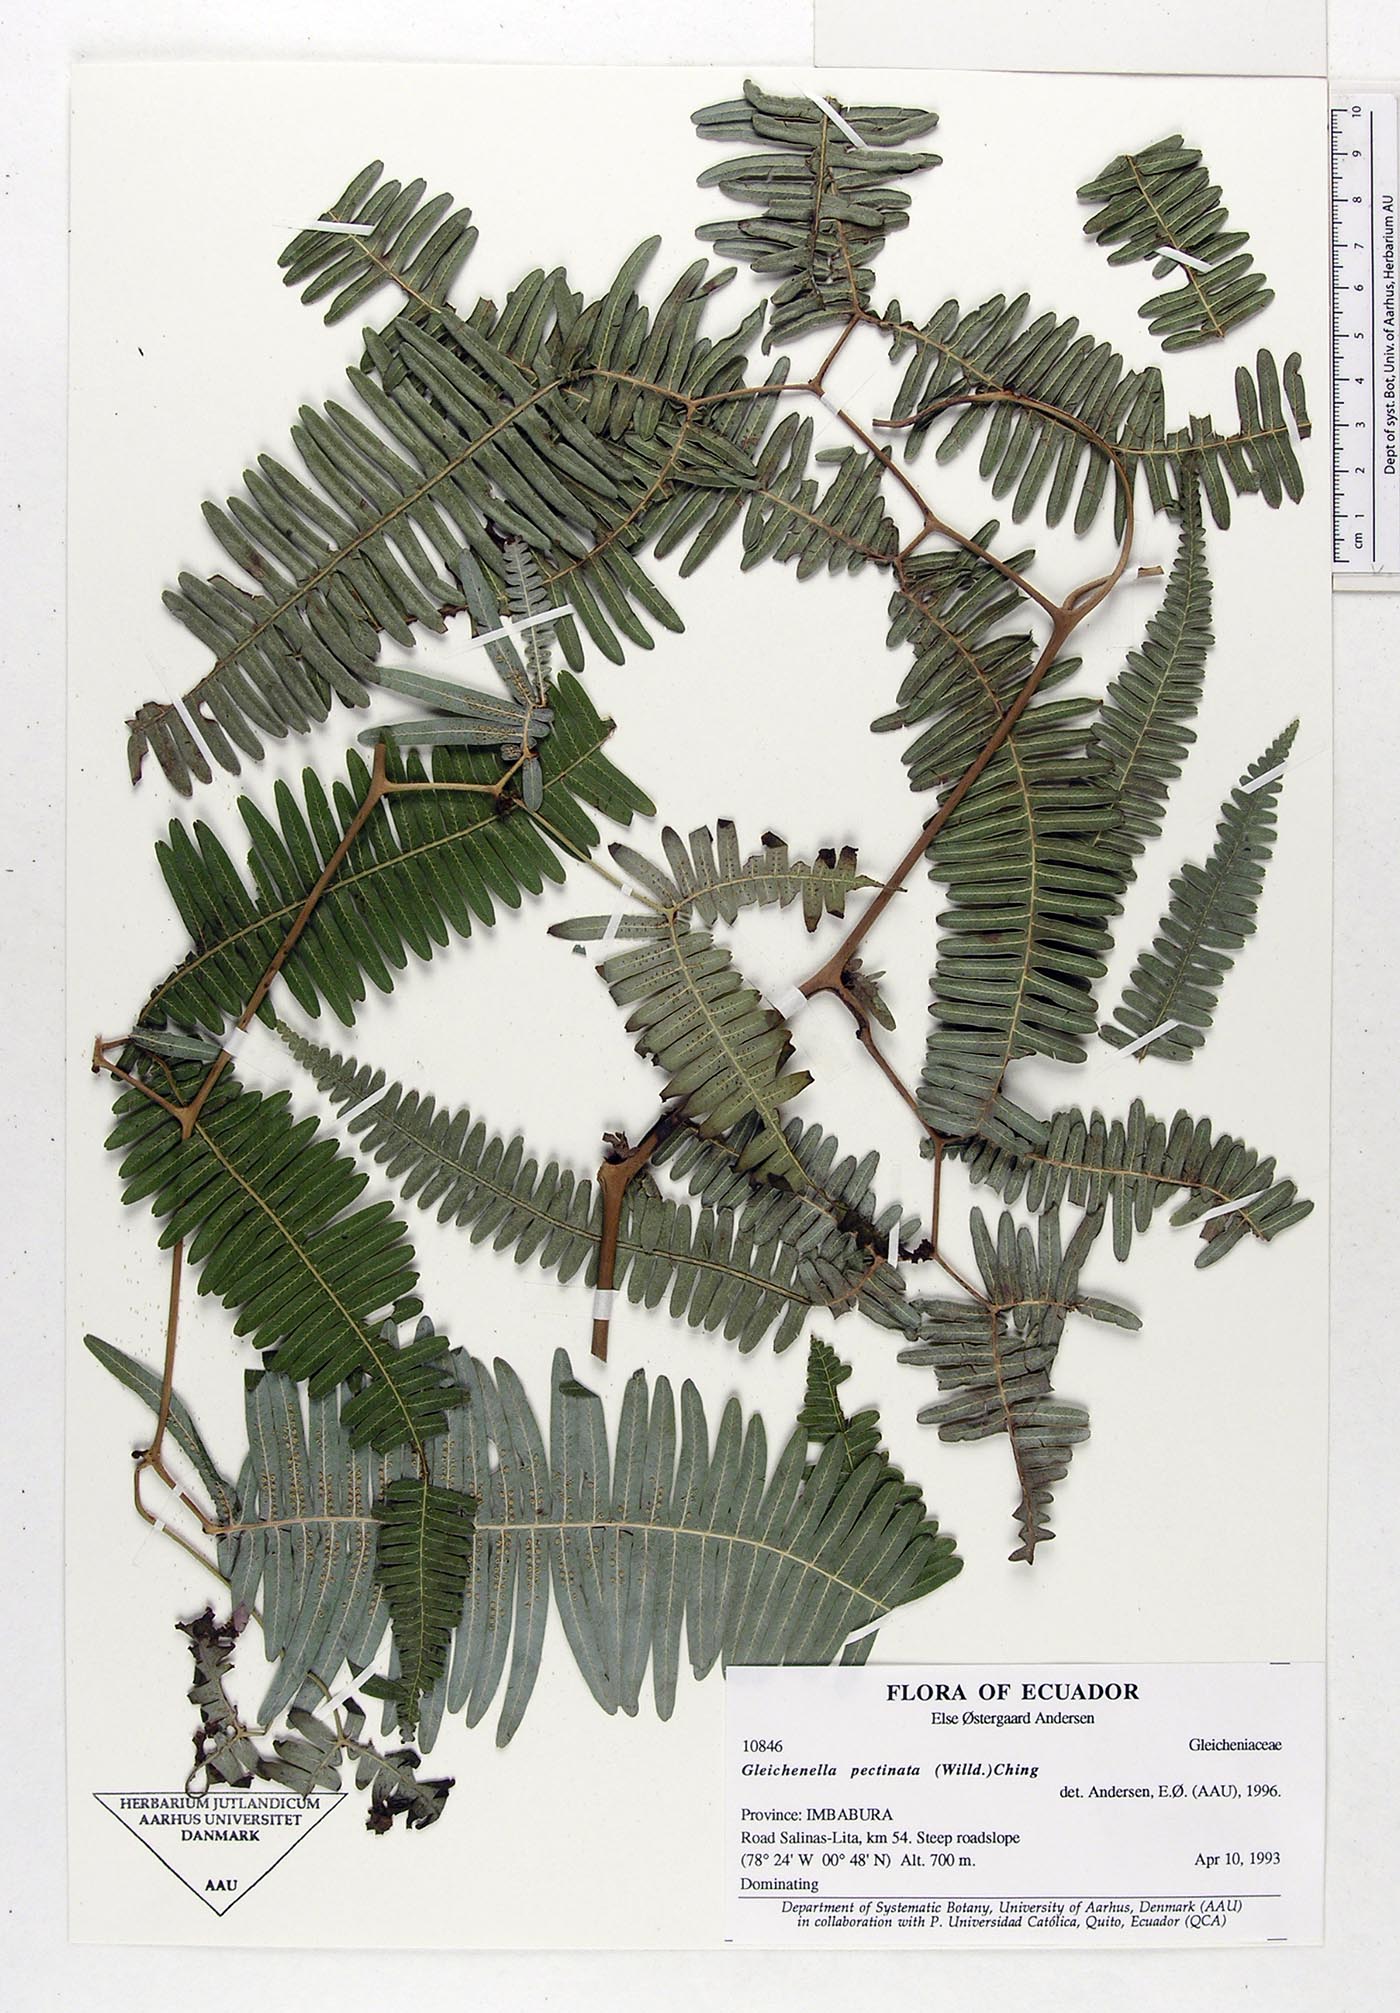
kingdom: Plantae
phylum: Tracheophyta
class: Polypodiopsida
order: Gleicheniales
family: Gleicheniaceae
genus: Gleichenella
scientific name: Gleichenella pectinata
